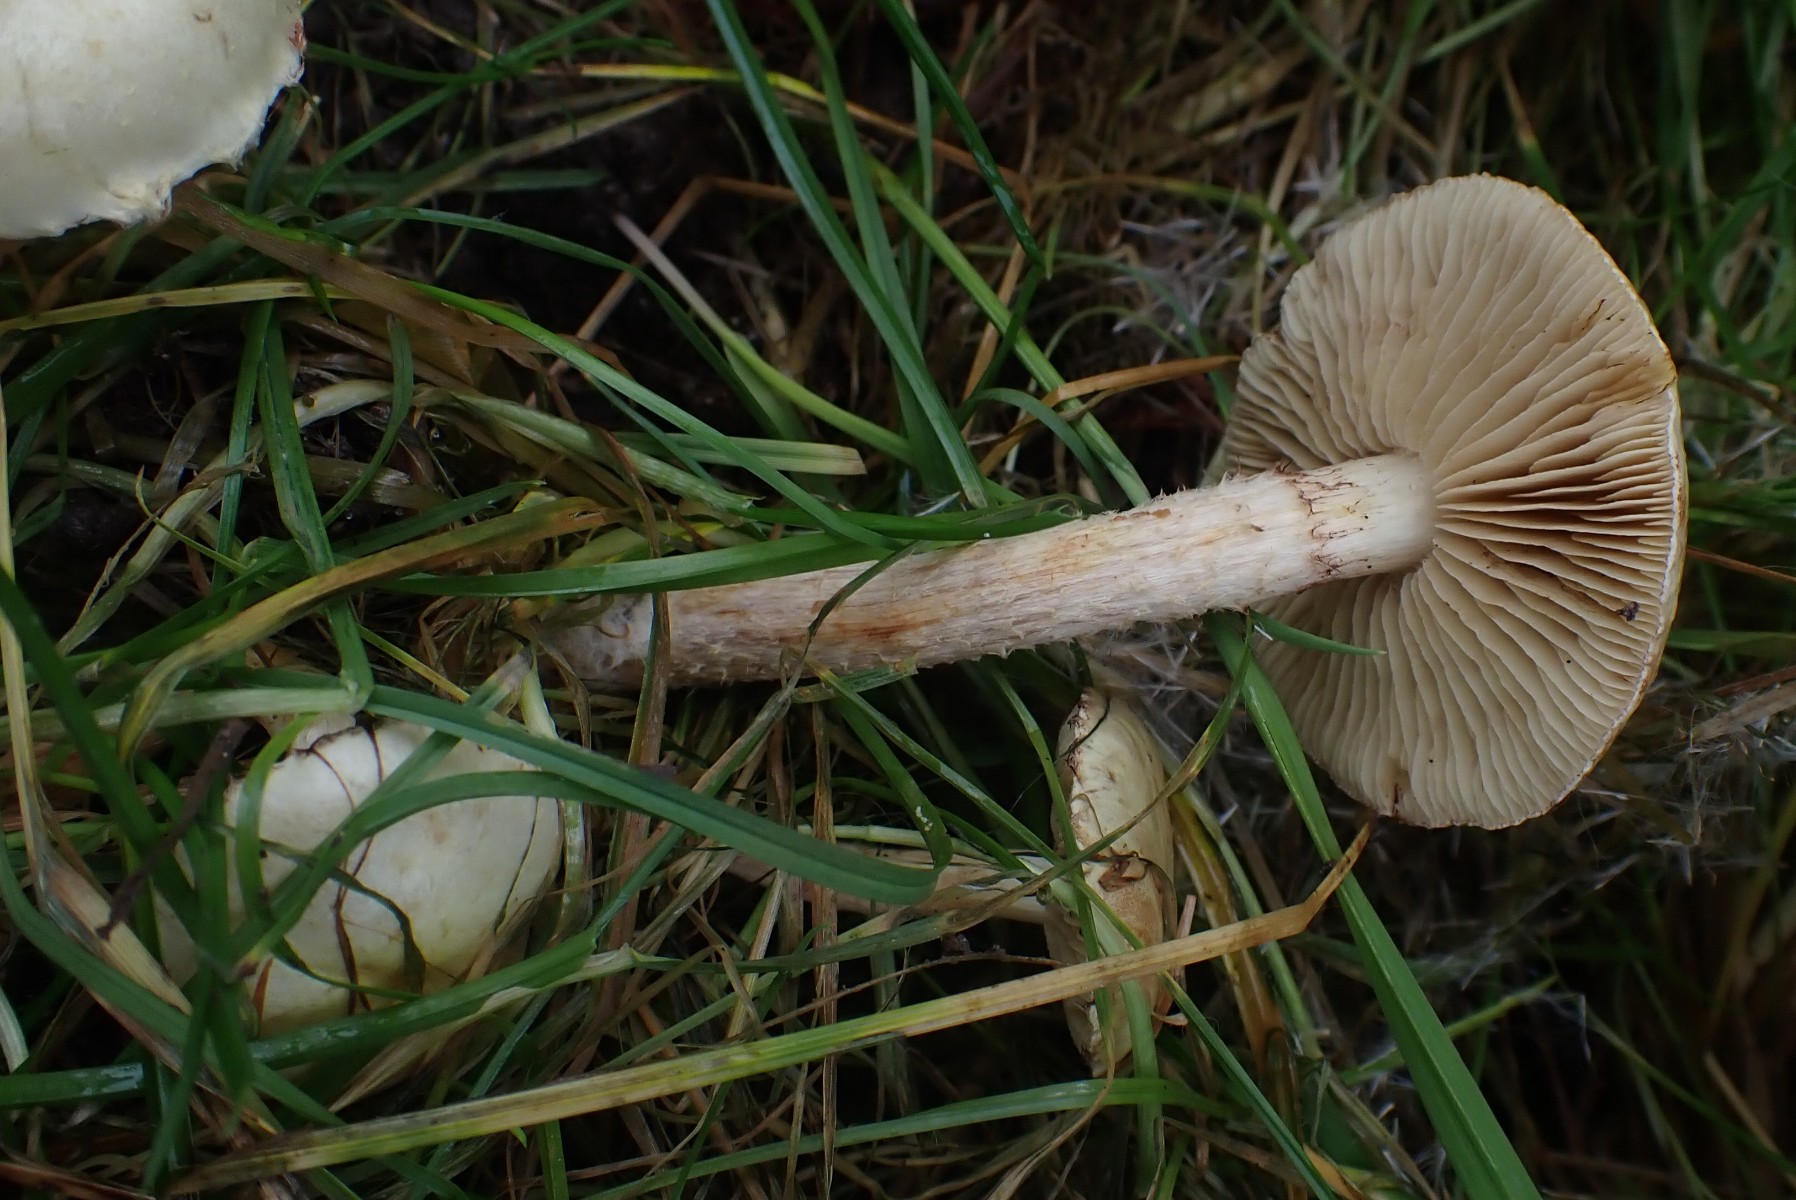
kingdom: Fungi
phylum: Basidiomycota
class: Agaricomycetes
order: Agaricales
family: Strophariaceae
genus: Pholiota
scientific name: Pholiota gummosa
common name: grøngul skælhat
